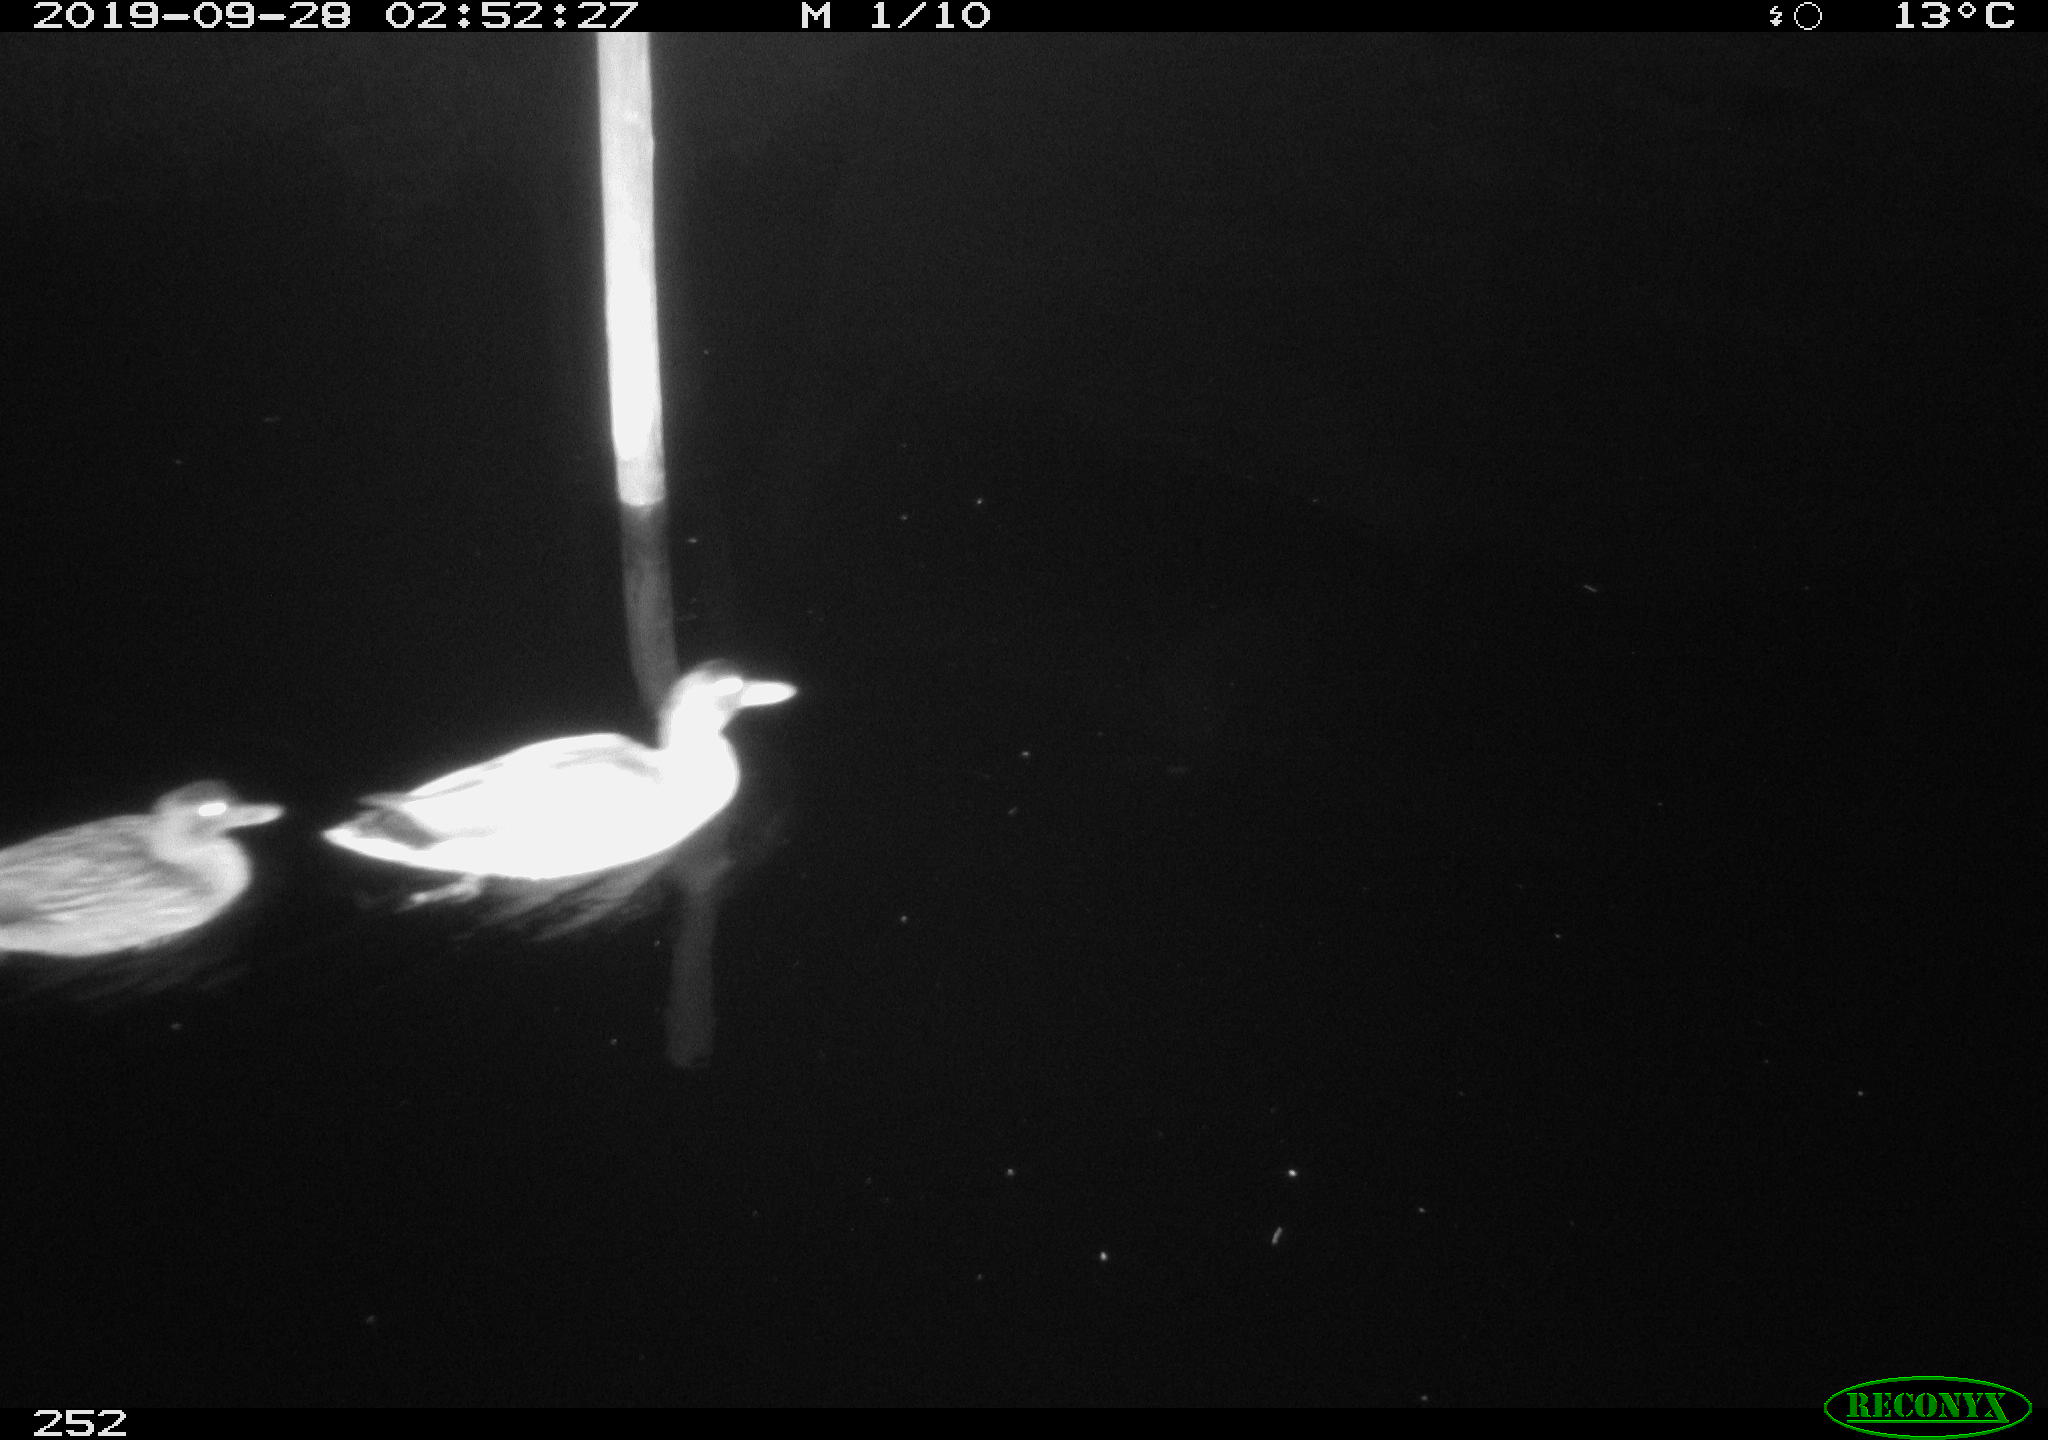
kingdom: Animalia
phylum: Chordata
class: Aves
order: Anseriformes
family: Anatidae
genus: Anas
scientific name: Anas platyrhynchos
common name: Mallard
